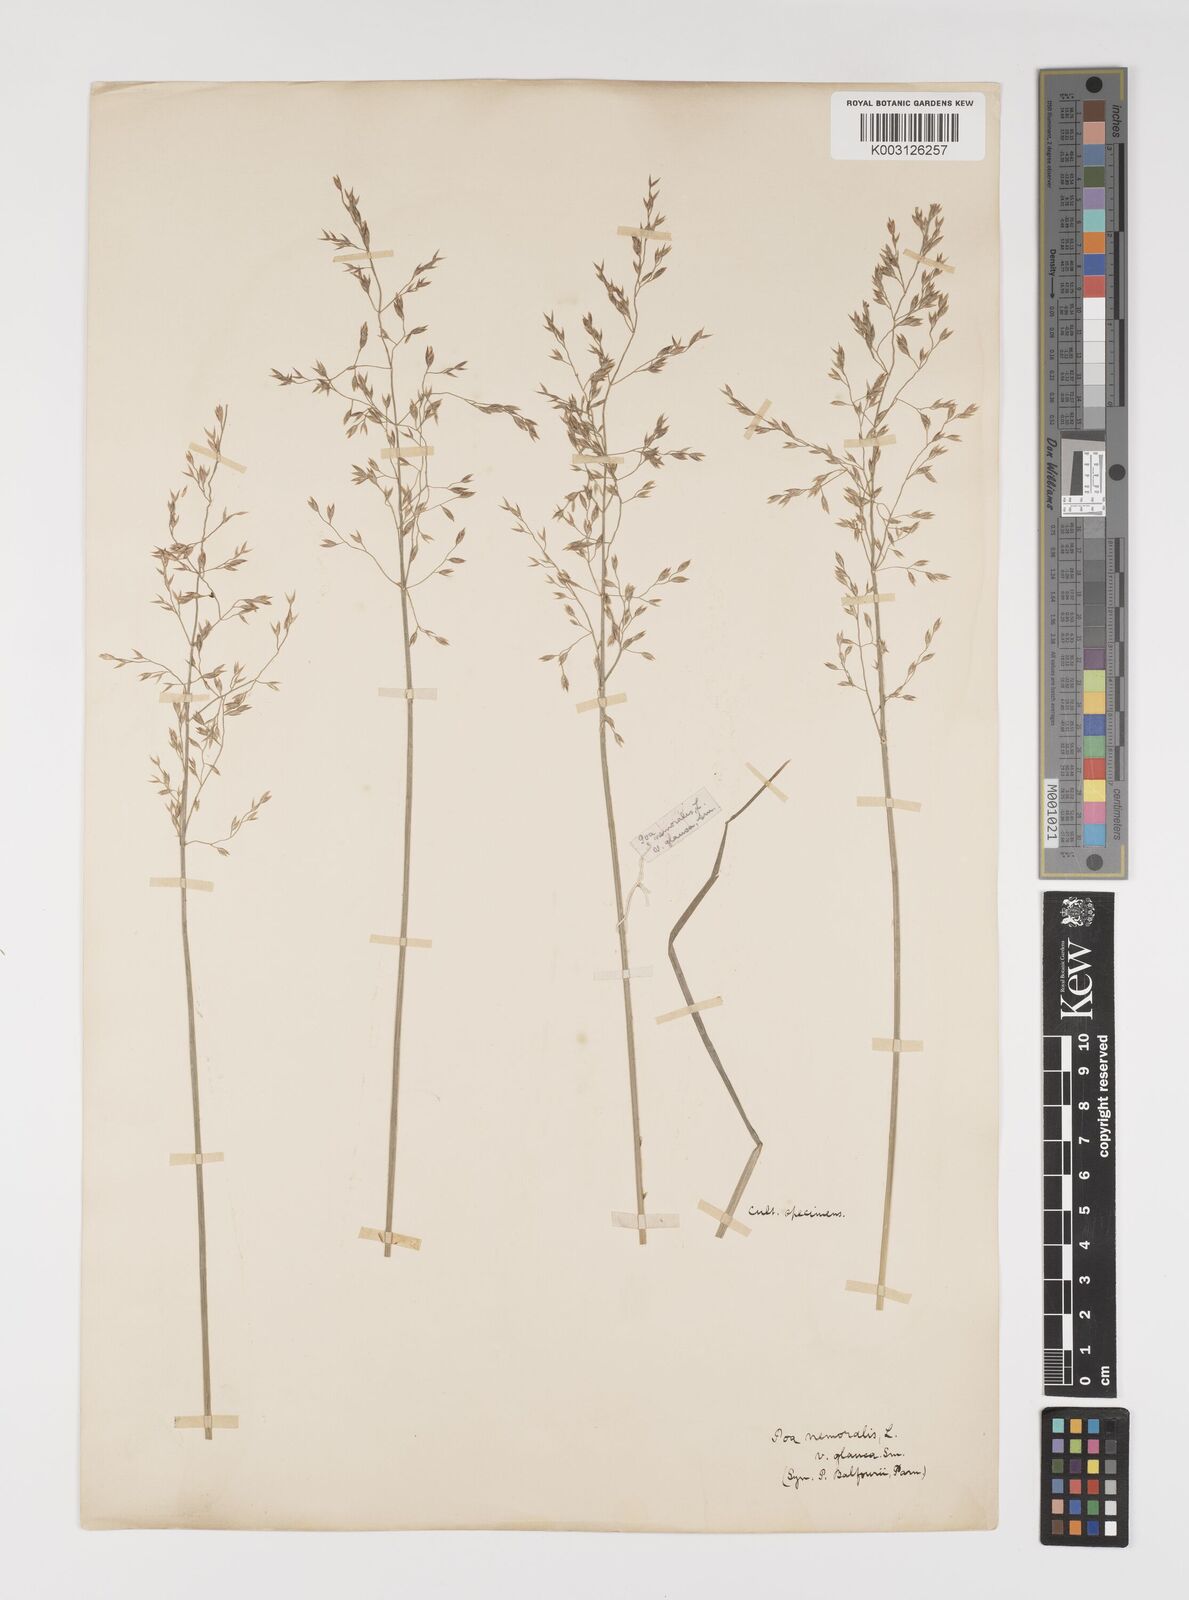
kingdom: Plantae
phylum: Tracheophyta
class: Liliopsida
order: Poales
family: Poaceae
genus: Poa
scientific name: Poa glauca
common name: Glaucous bluegrass
